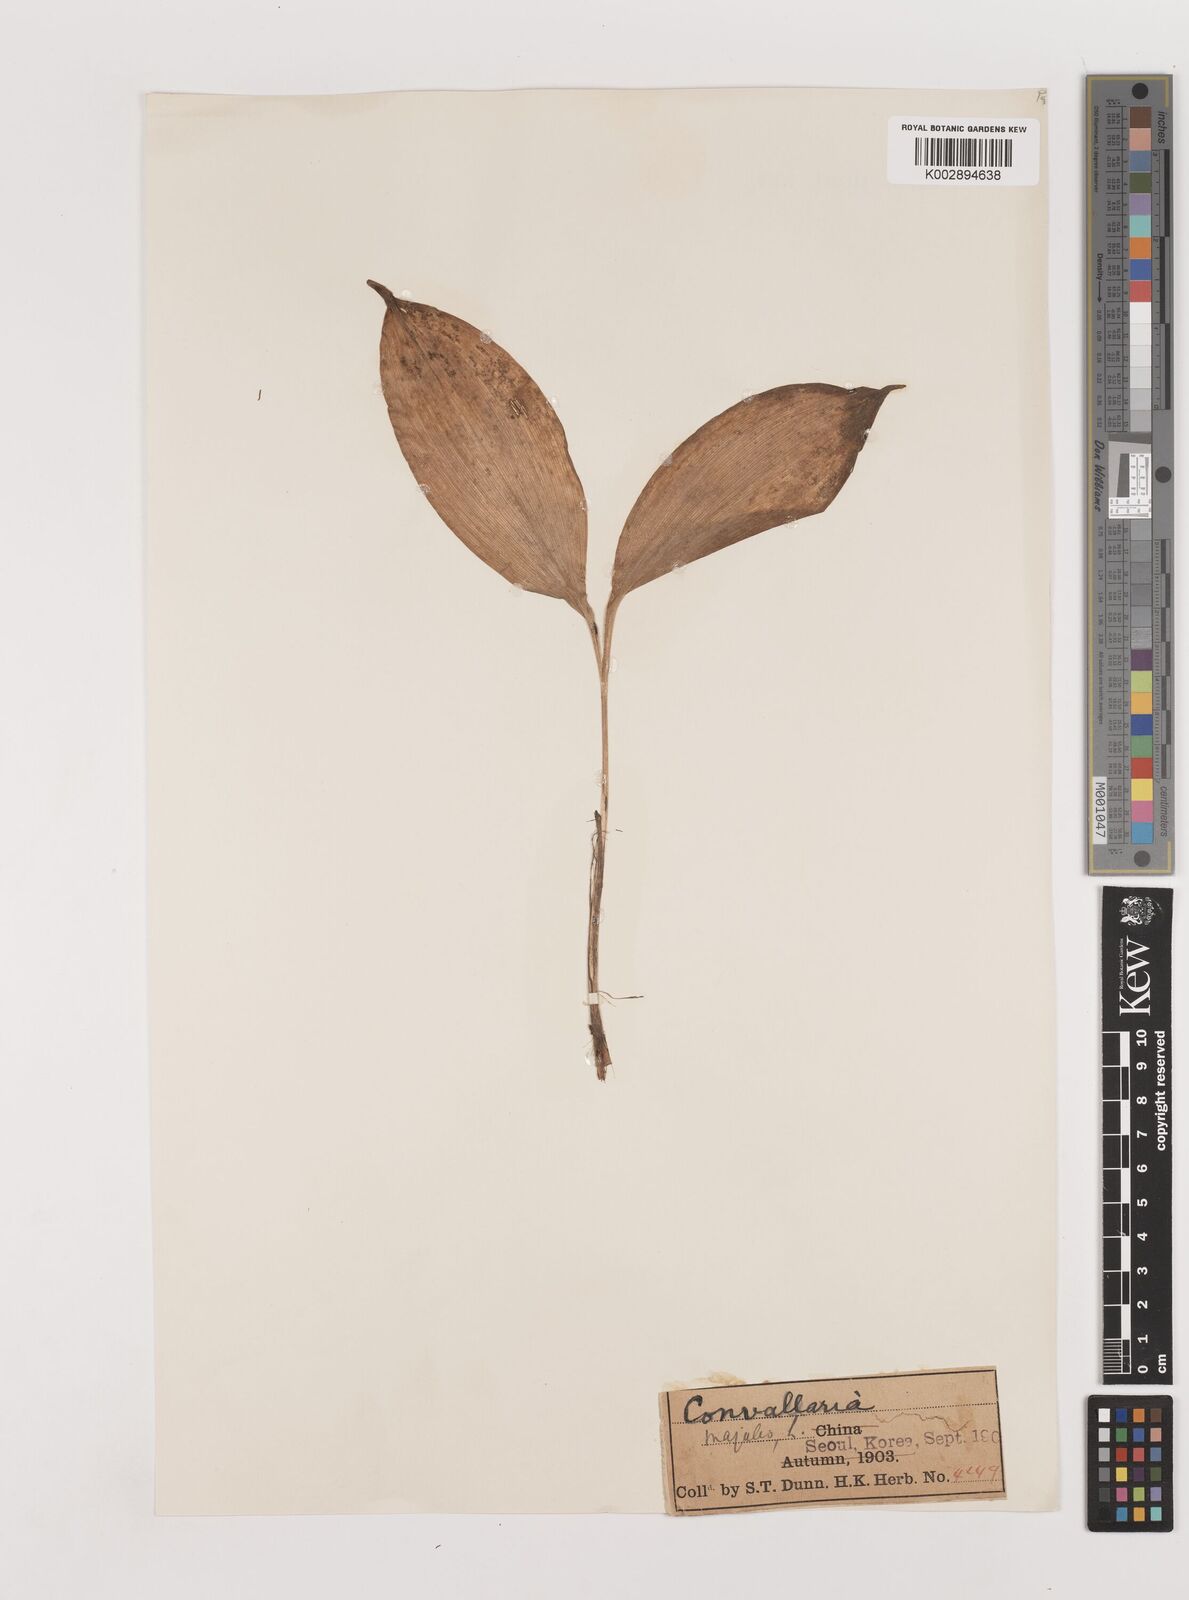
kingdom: Plantae
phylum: Tracheophyta
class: Liliopsida
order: Asparagales
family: Asparagaceae
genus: Ophiopogon
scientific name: Ophiopogon
